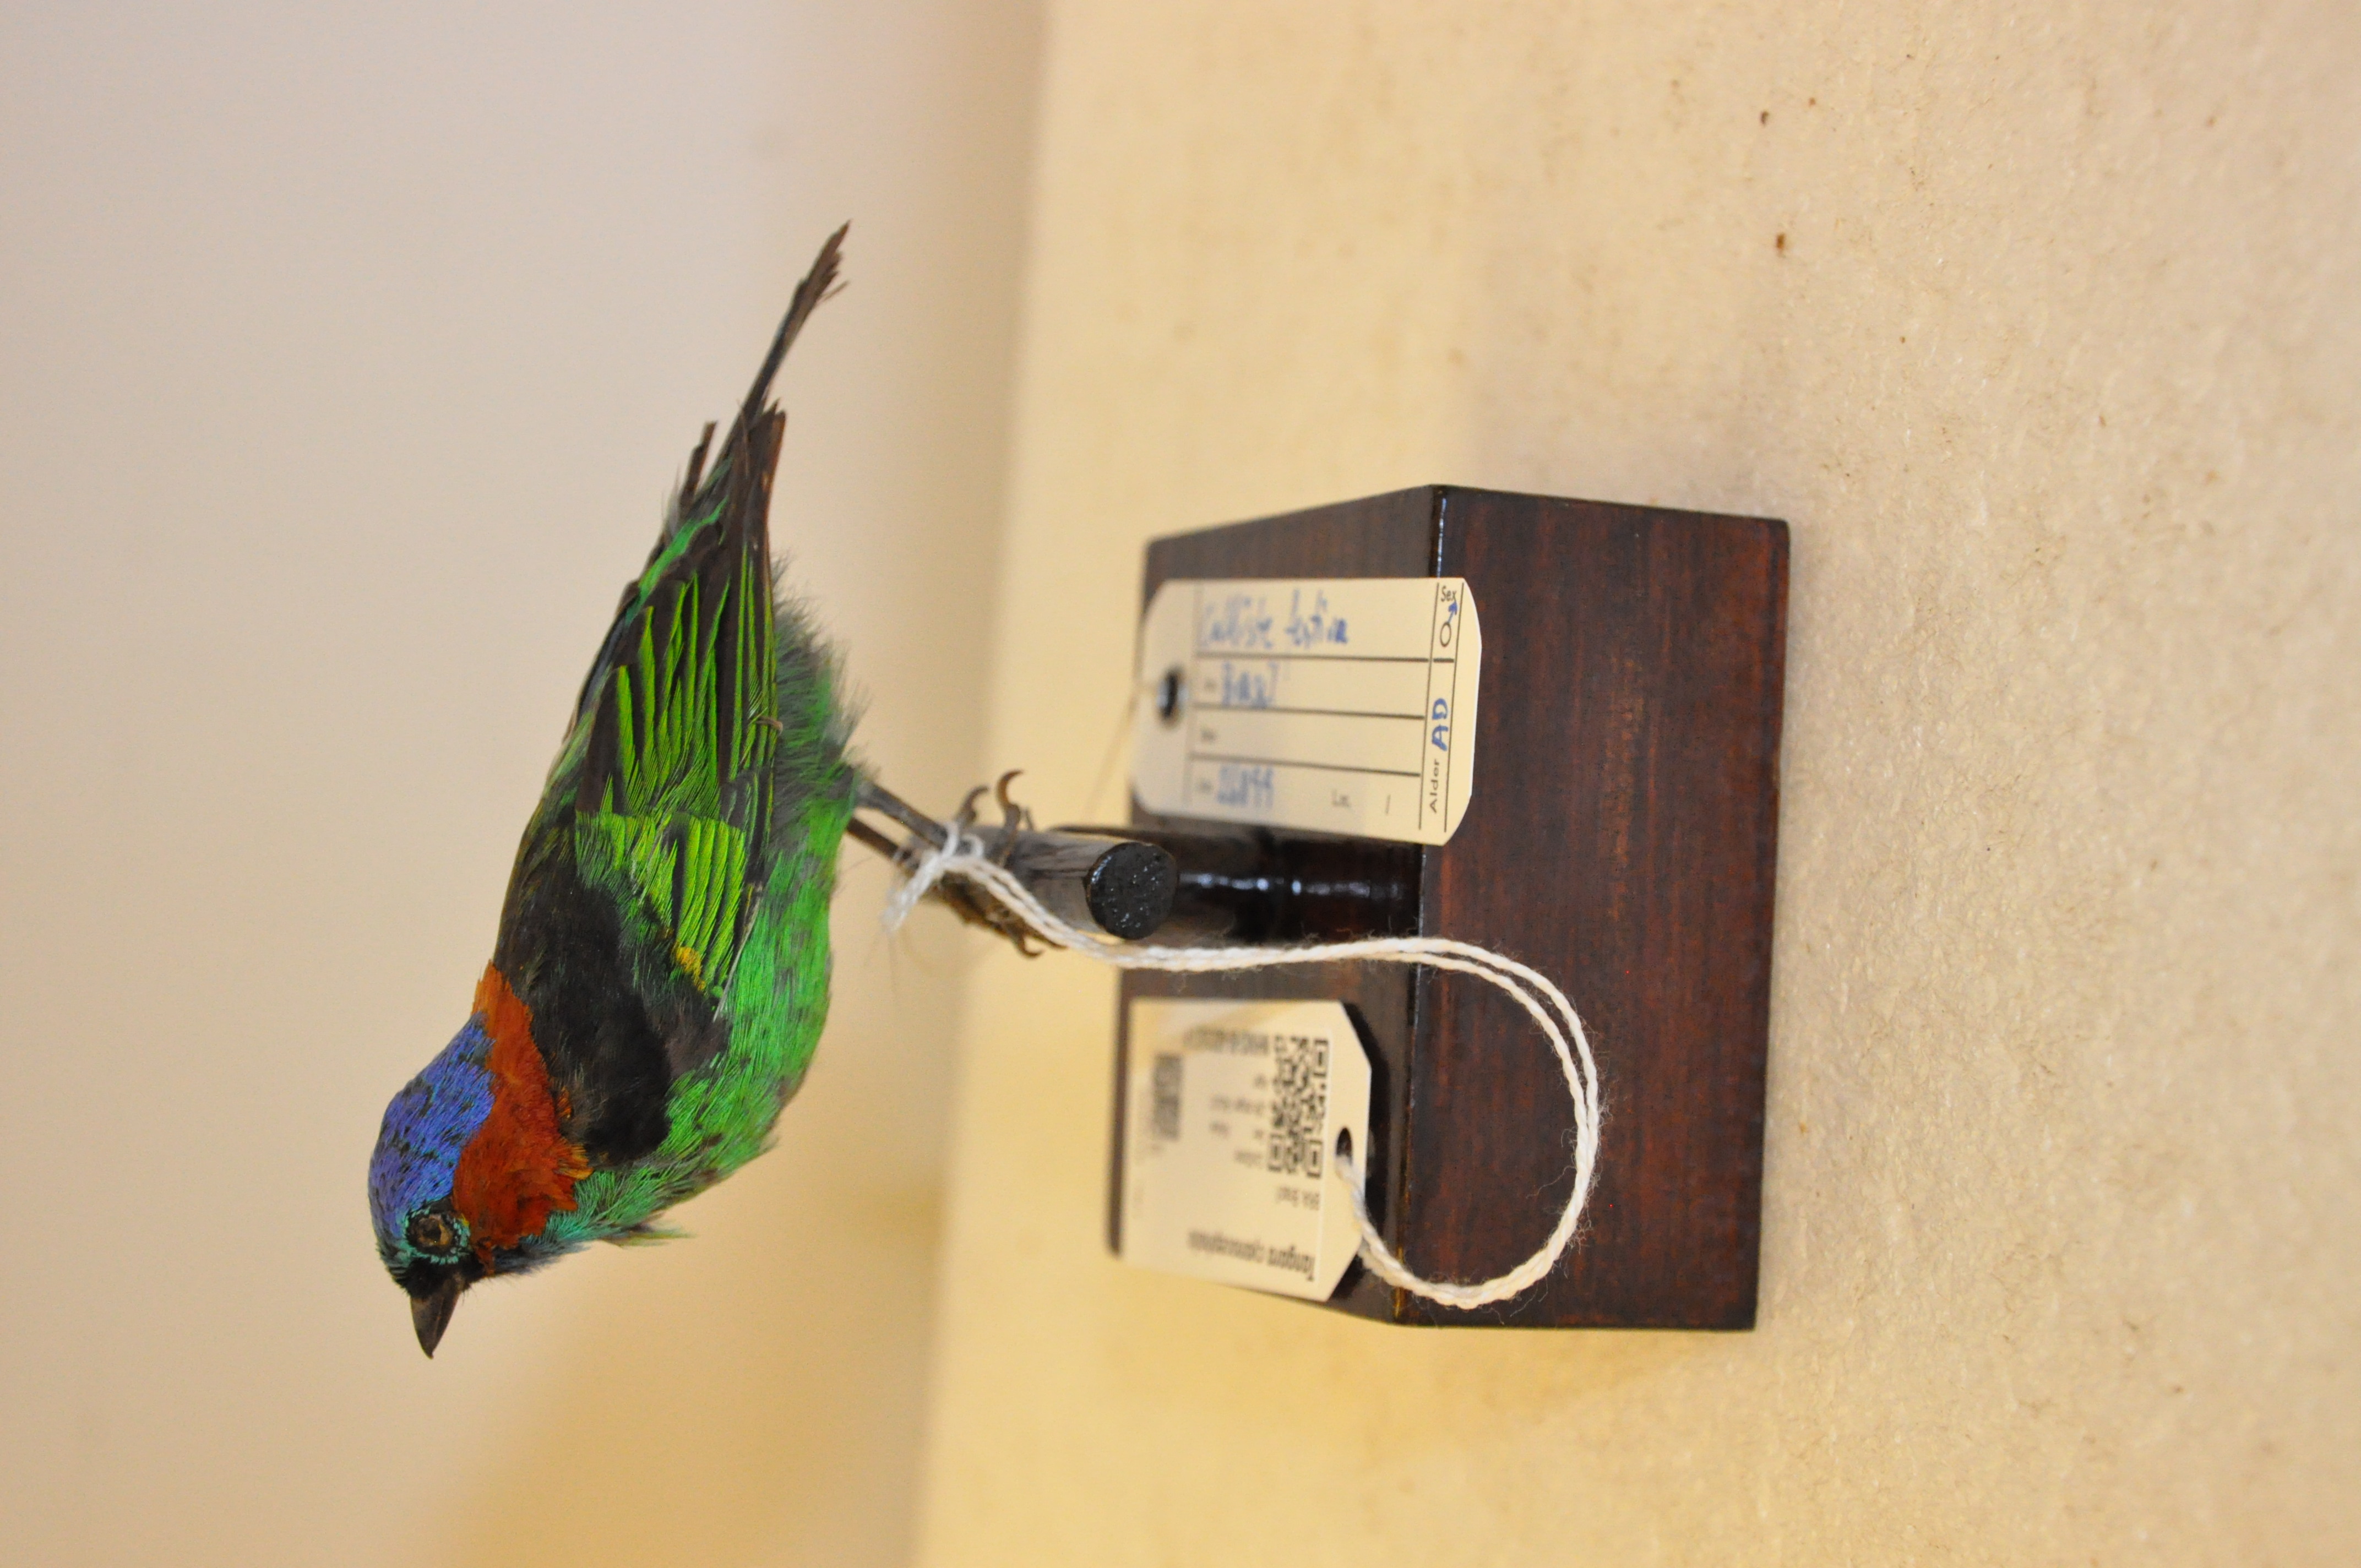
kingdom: Animalia
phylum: Chordata
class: Aves
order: Passeriformes
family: Thraupidae
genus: Tangara
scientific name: Tangara cyanocephala
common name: Red-necked tanager
